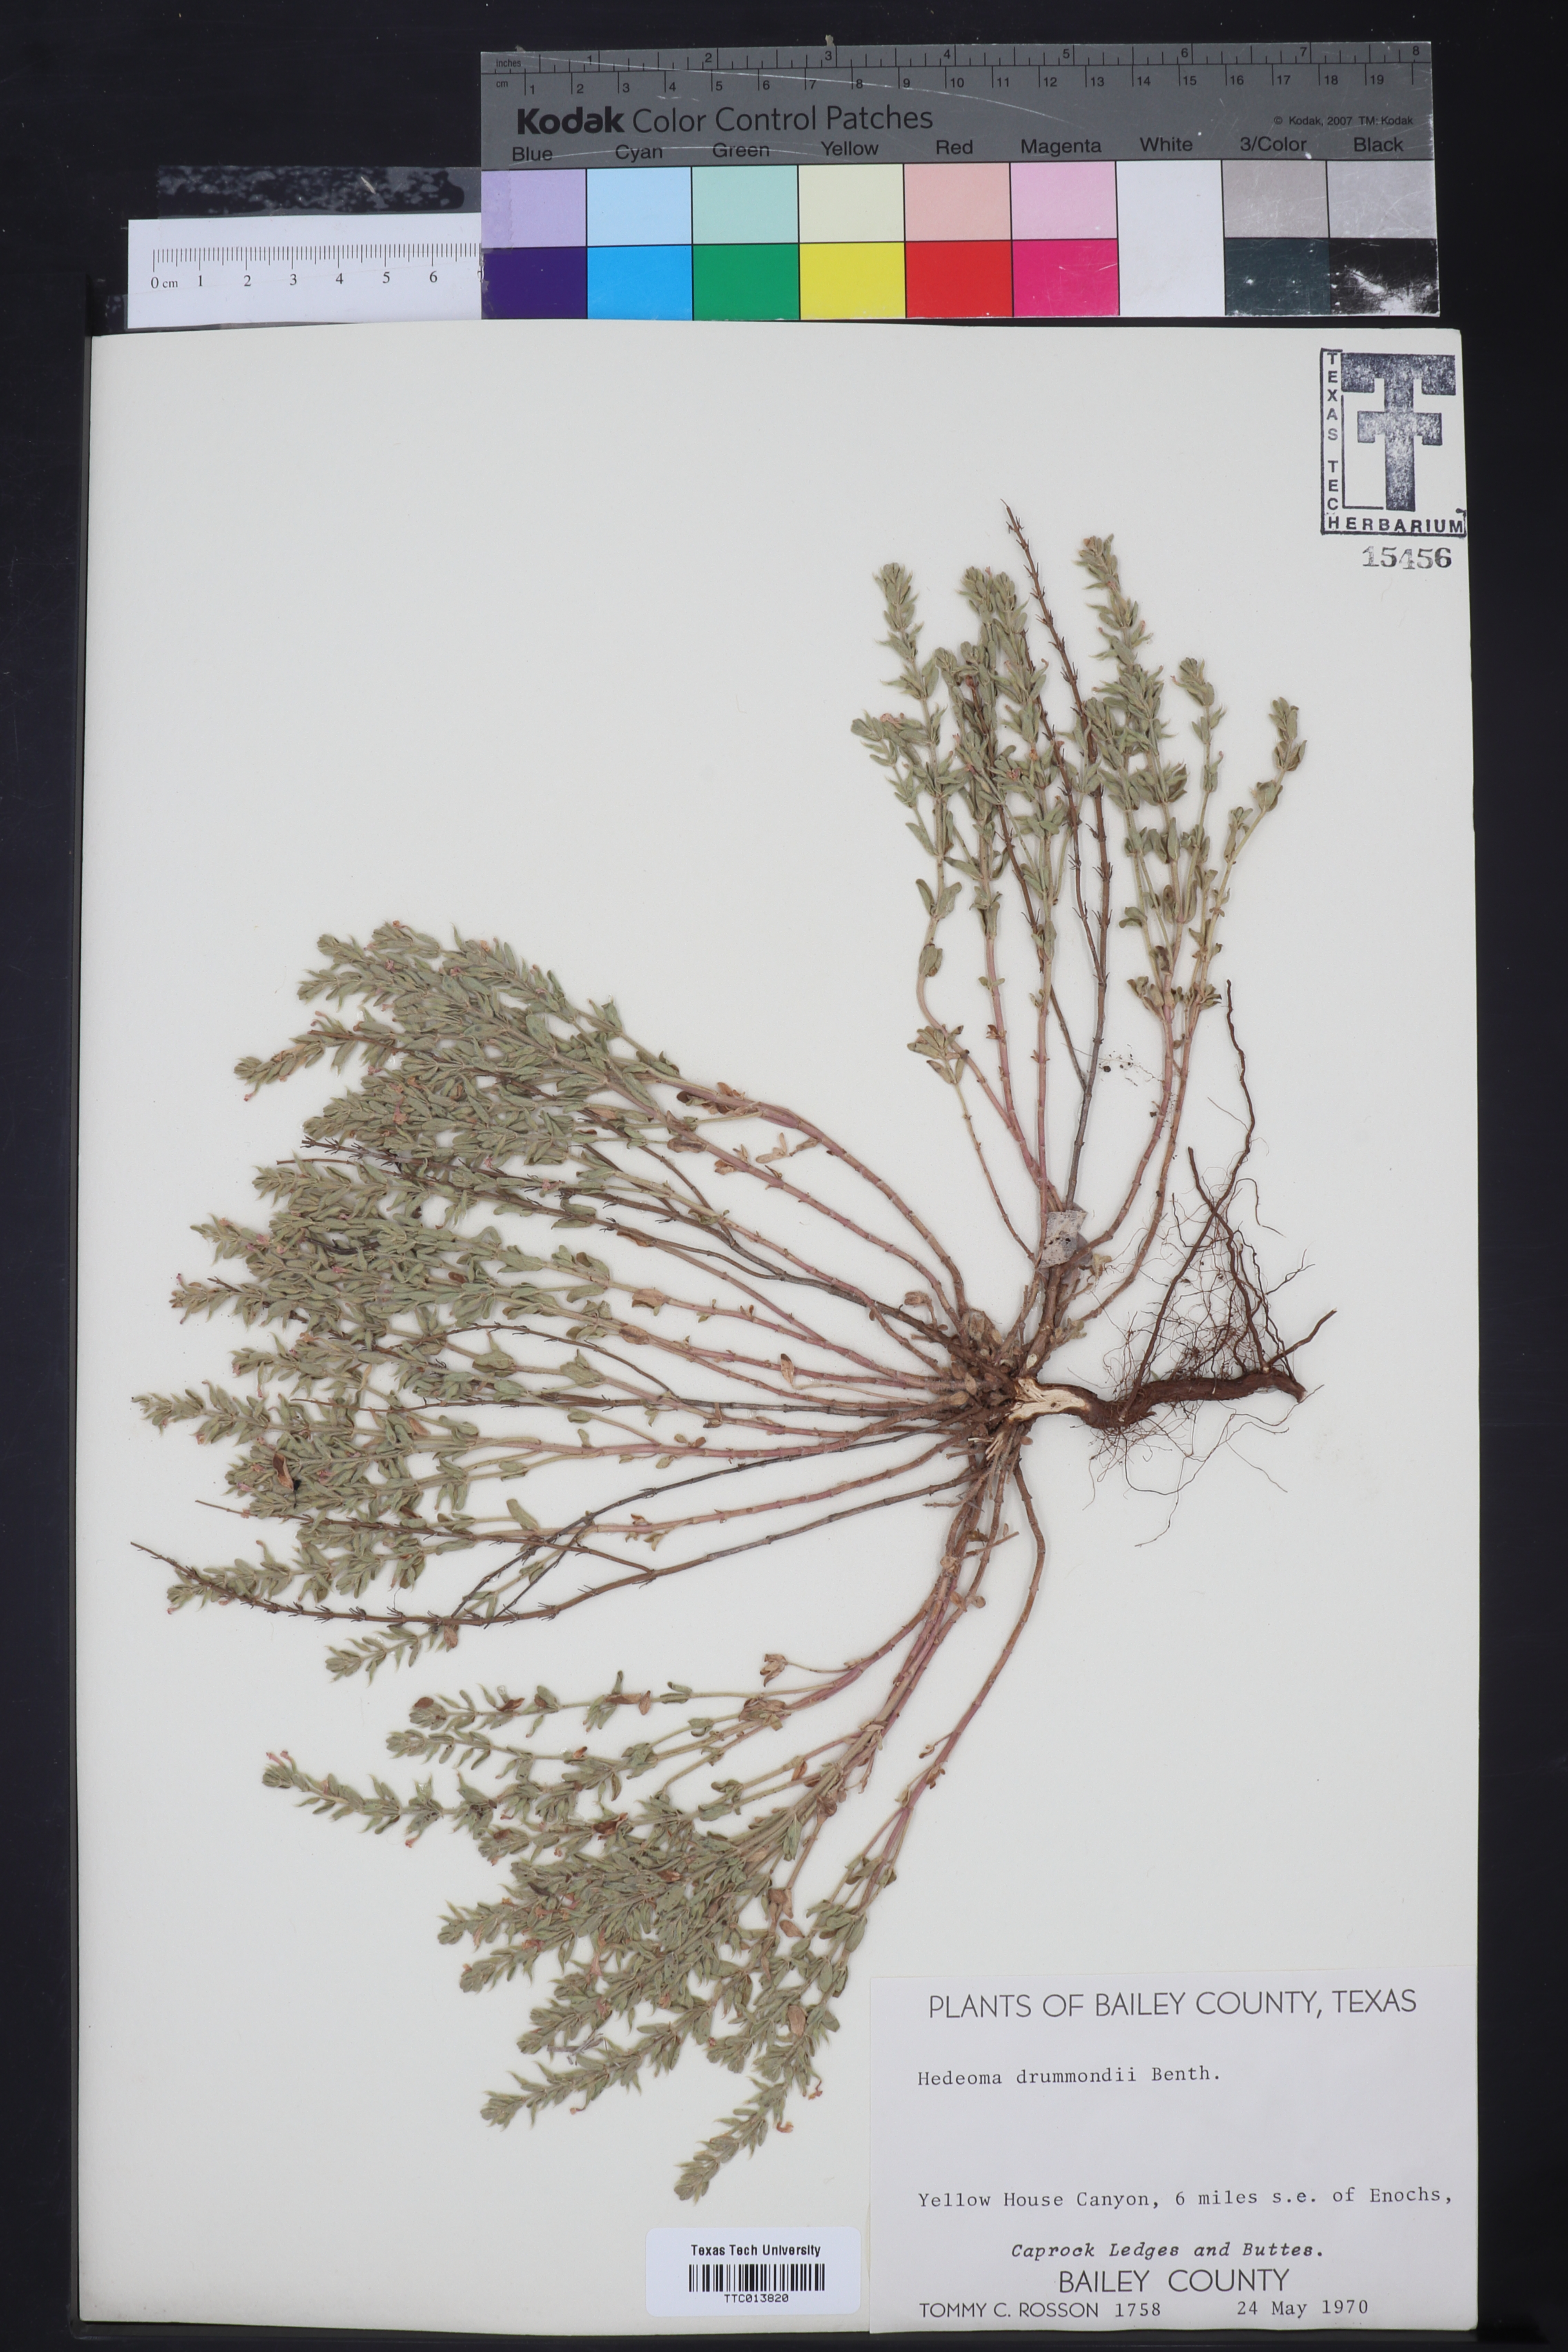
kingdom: Plantae
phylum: Tracheophyta
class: Magnoliopsida
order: Lamiales
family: Lamiaceae
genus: Hedeoma
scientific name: Hedeoma drummondii
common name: New mexico pennyroyal
